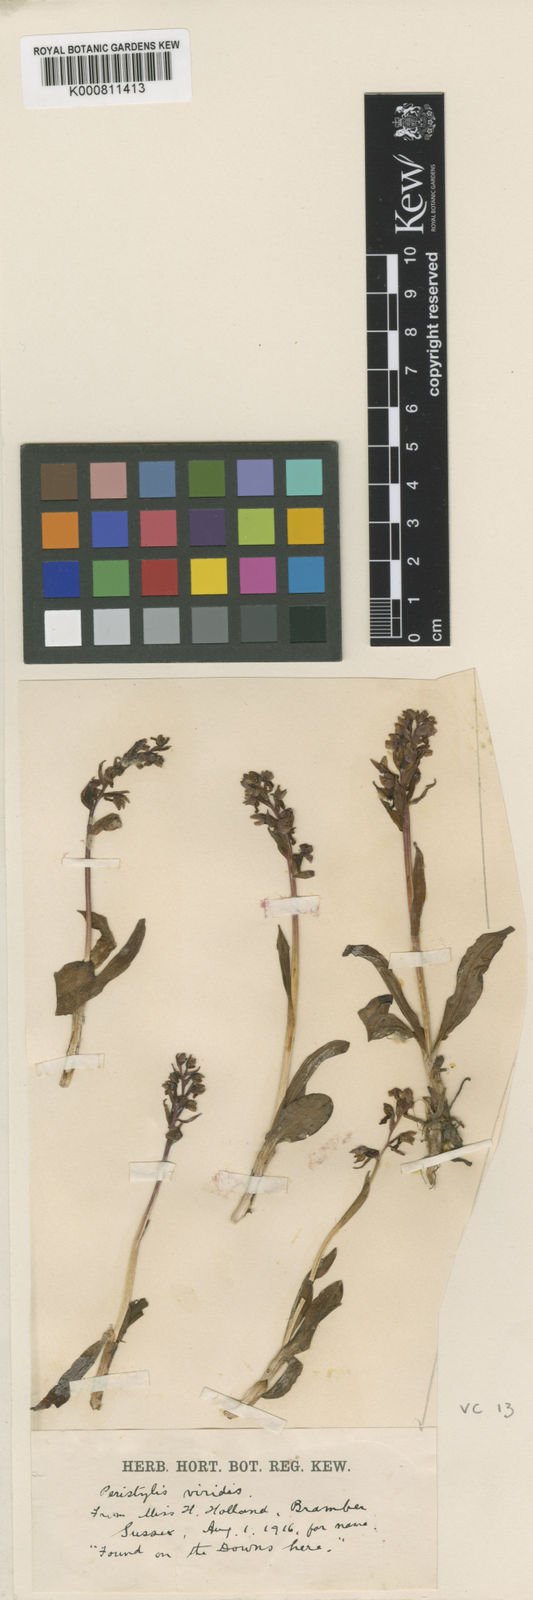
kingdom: Plantae
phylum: Tracheophyta
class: Liliopsida
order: Asparagales
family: Orchidaceae
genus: Dactylorhiza
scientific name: Dactylorhiza viridis
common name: Longbract frog orchid
